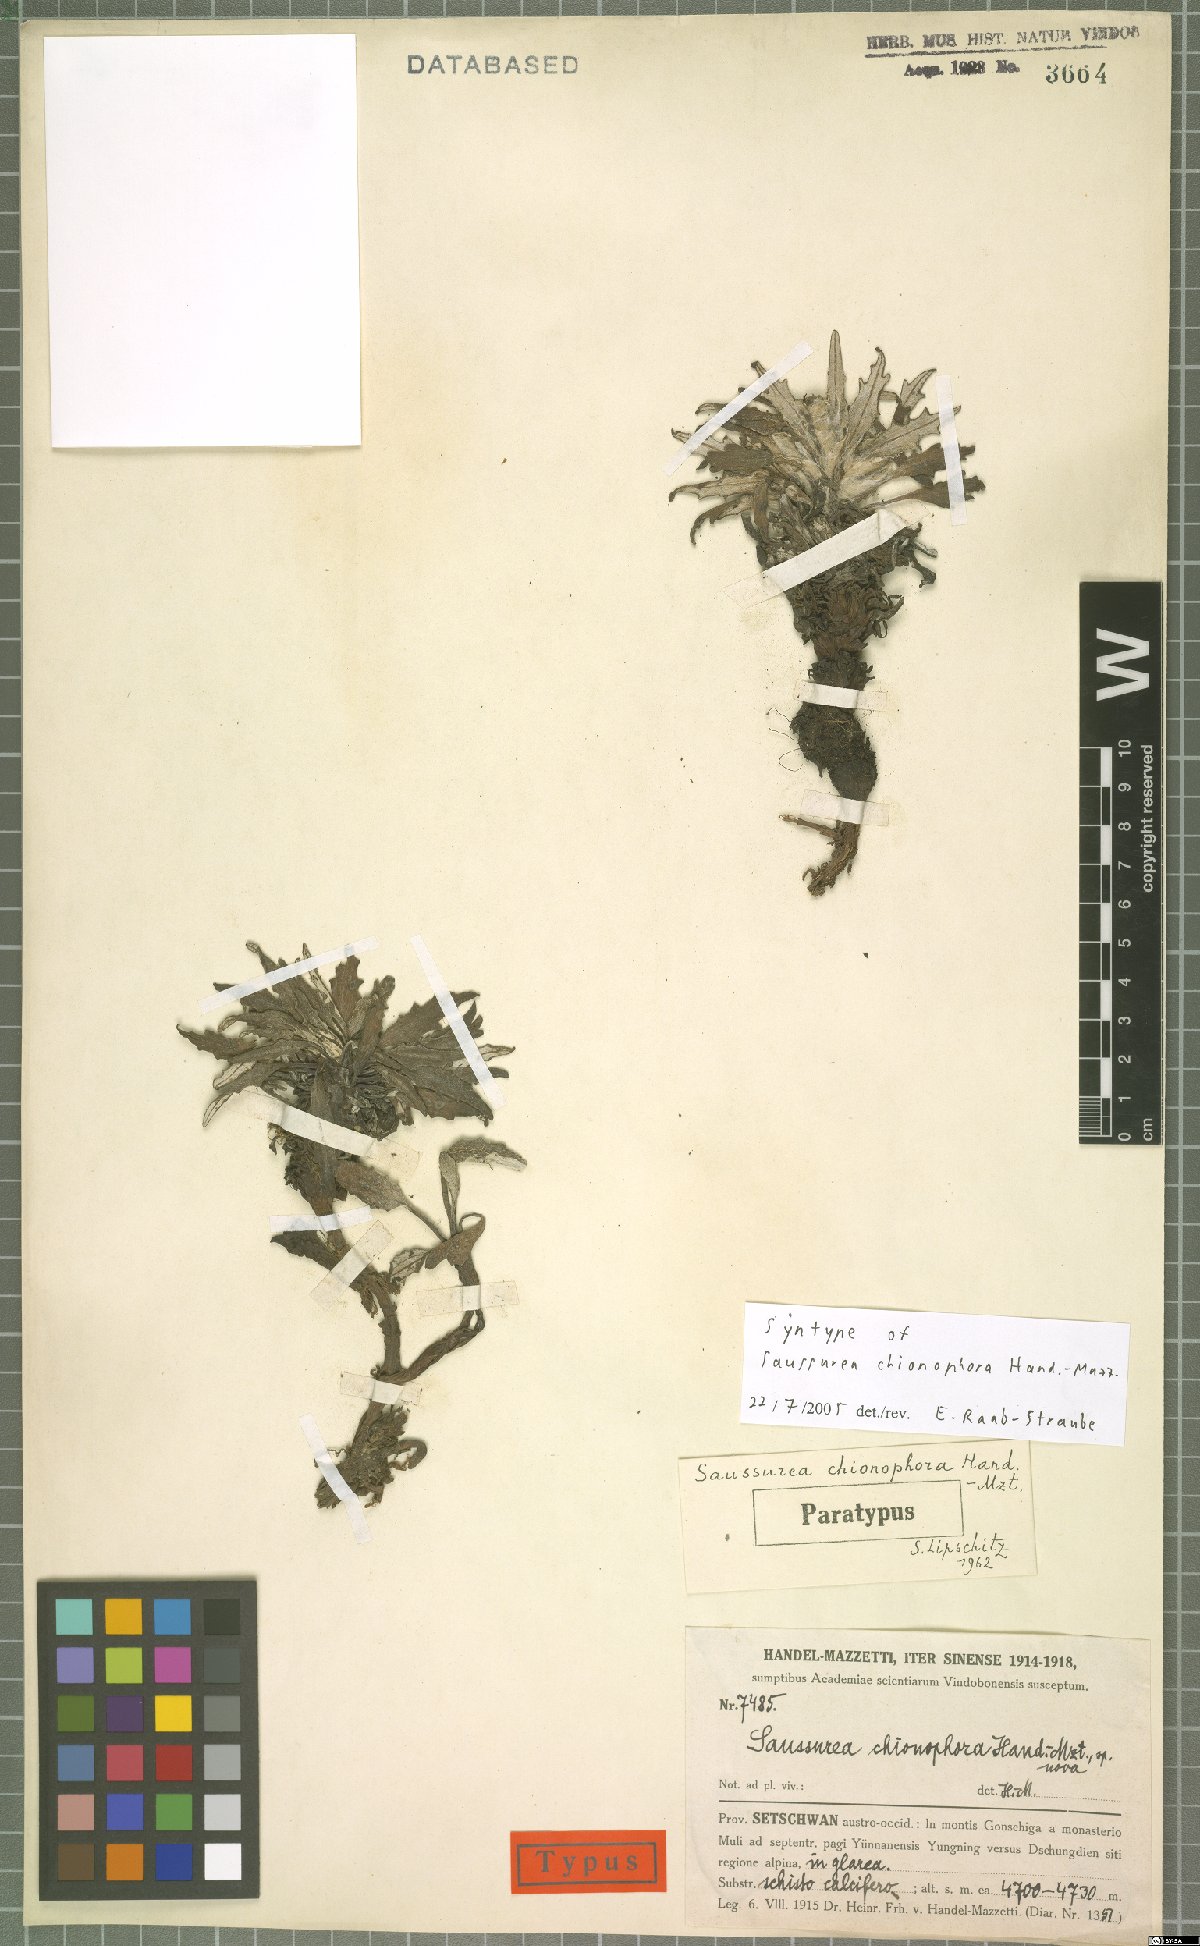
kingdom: Plantae
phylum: Tracheophyta
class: Magnoliopsida
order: Asterales
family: Asteraceae
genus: Saussurea
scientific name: Saussurea quercifolia
